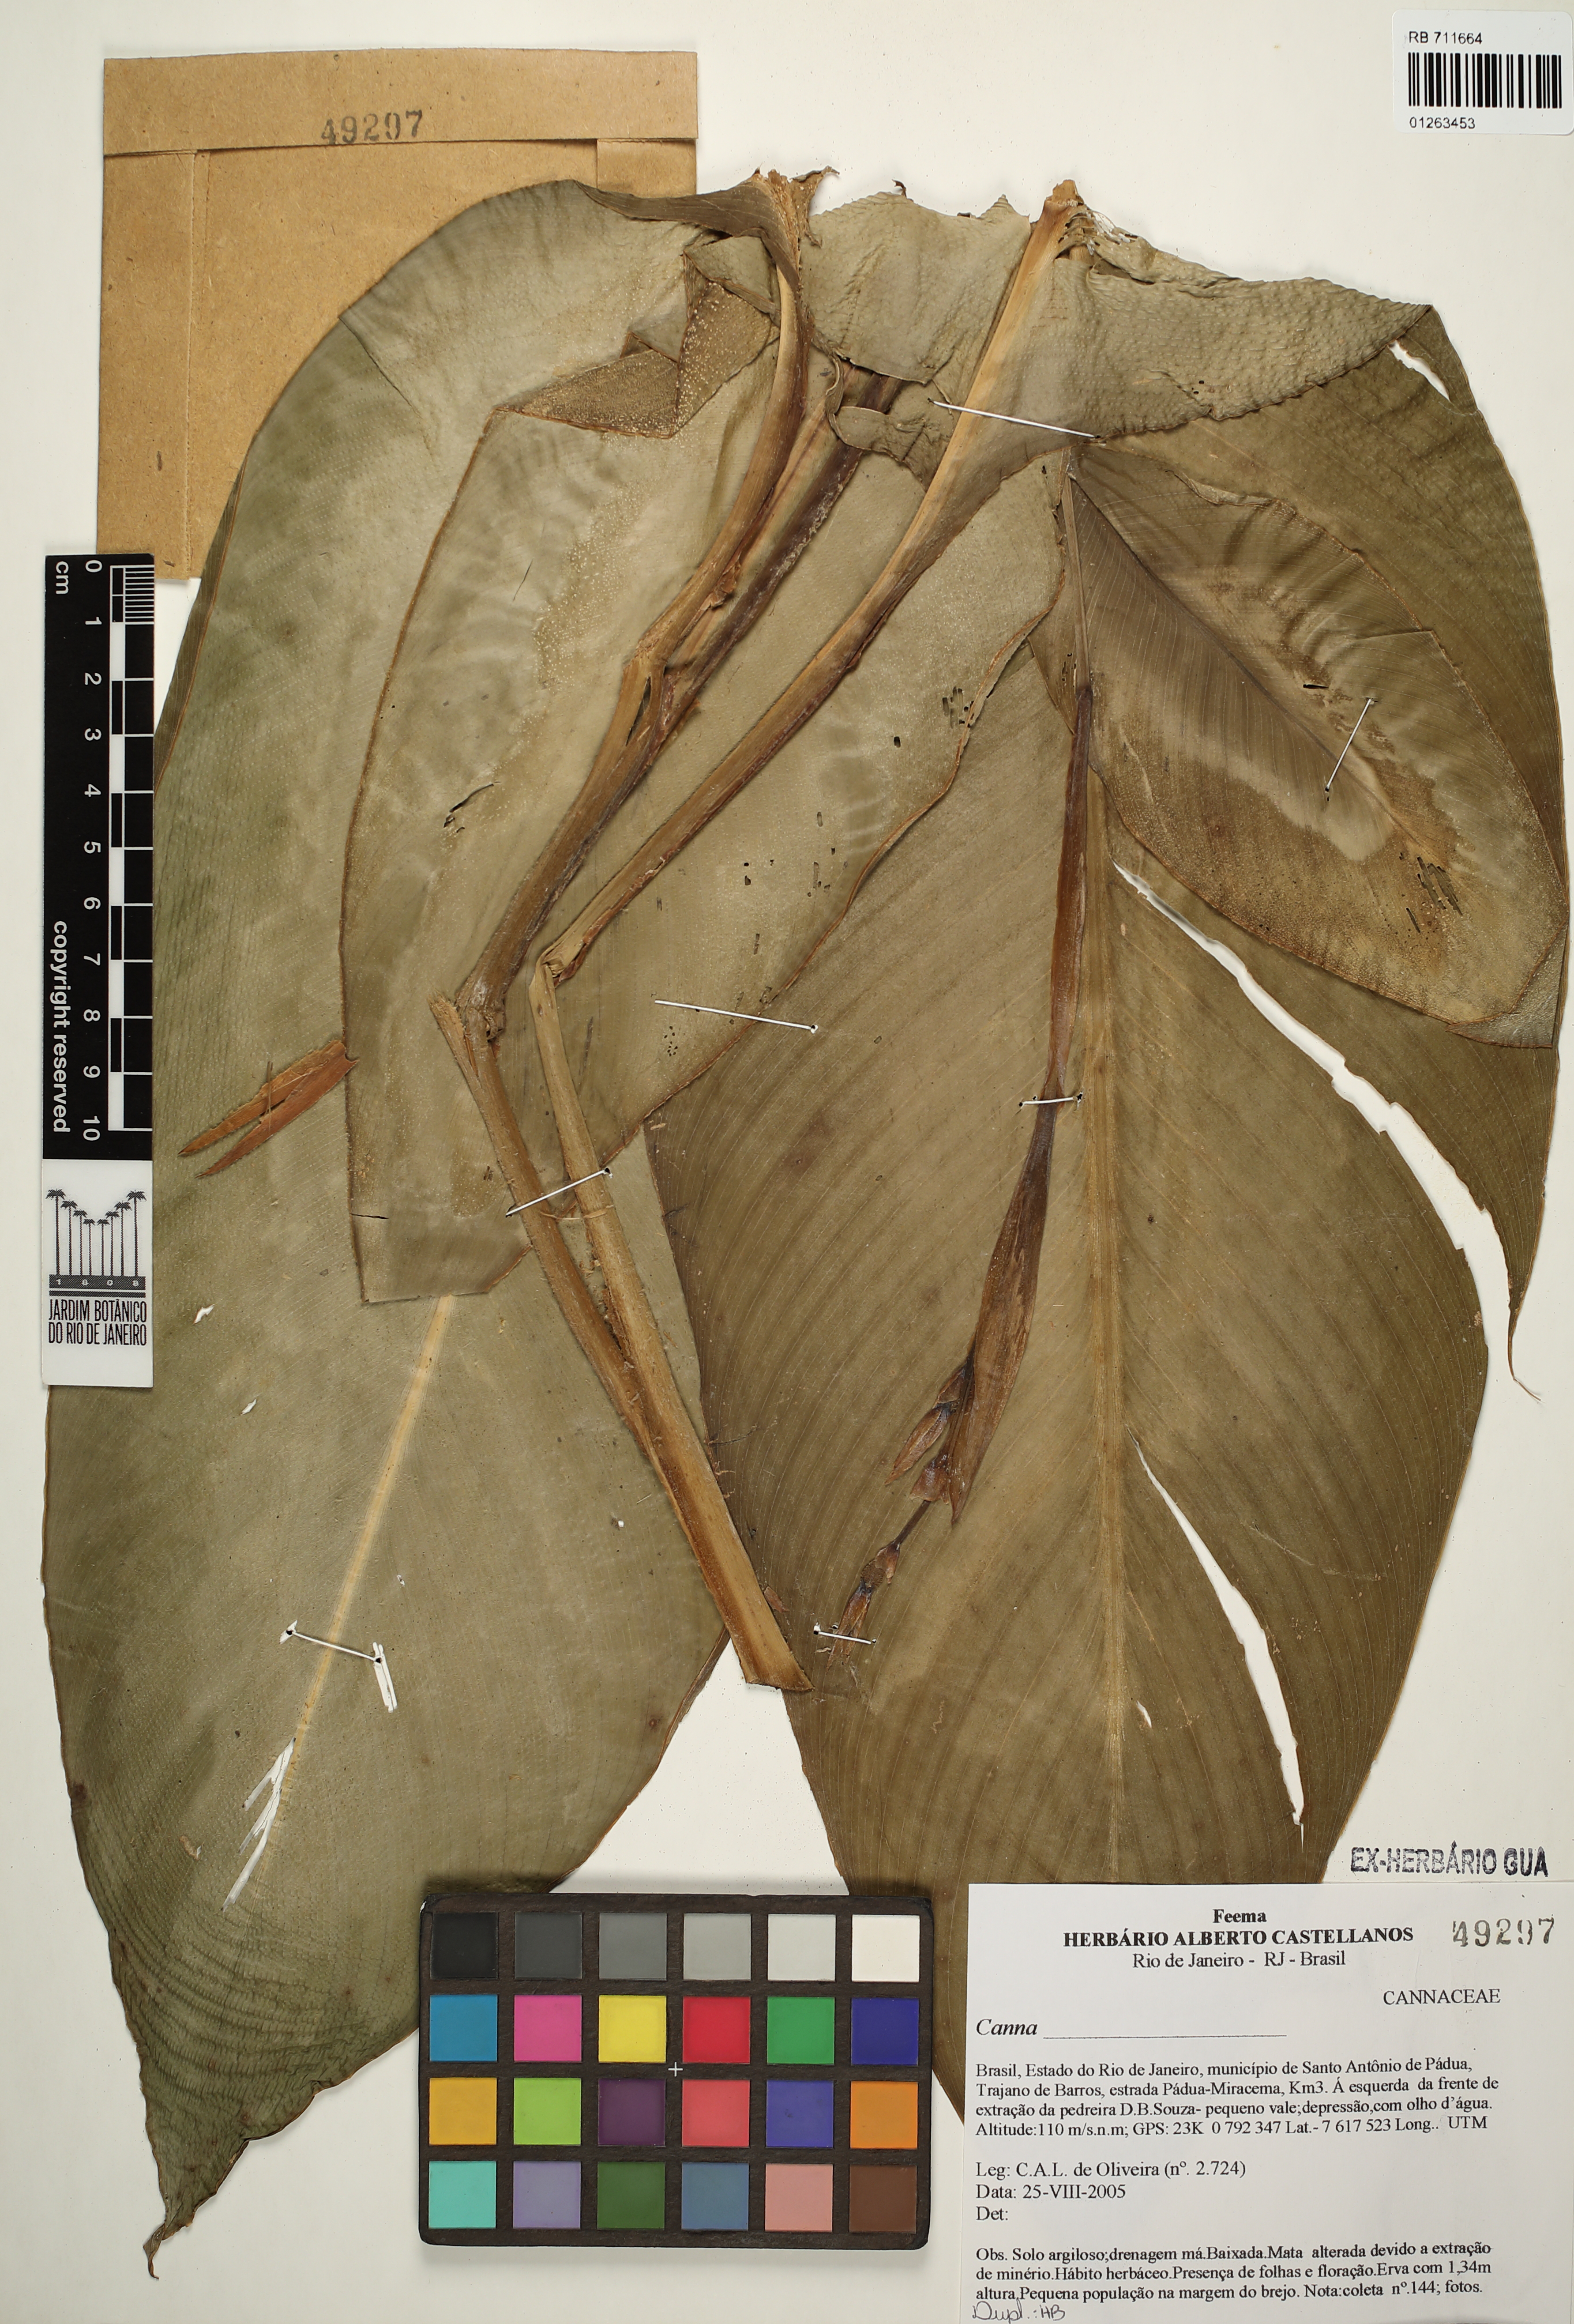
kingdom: Plantae
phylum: Tracheophyta
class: Liliopsida
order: Zingiberales
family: Cannaceae
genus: Canna
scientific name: Canna
